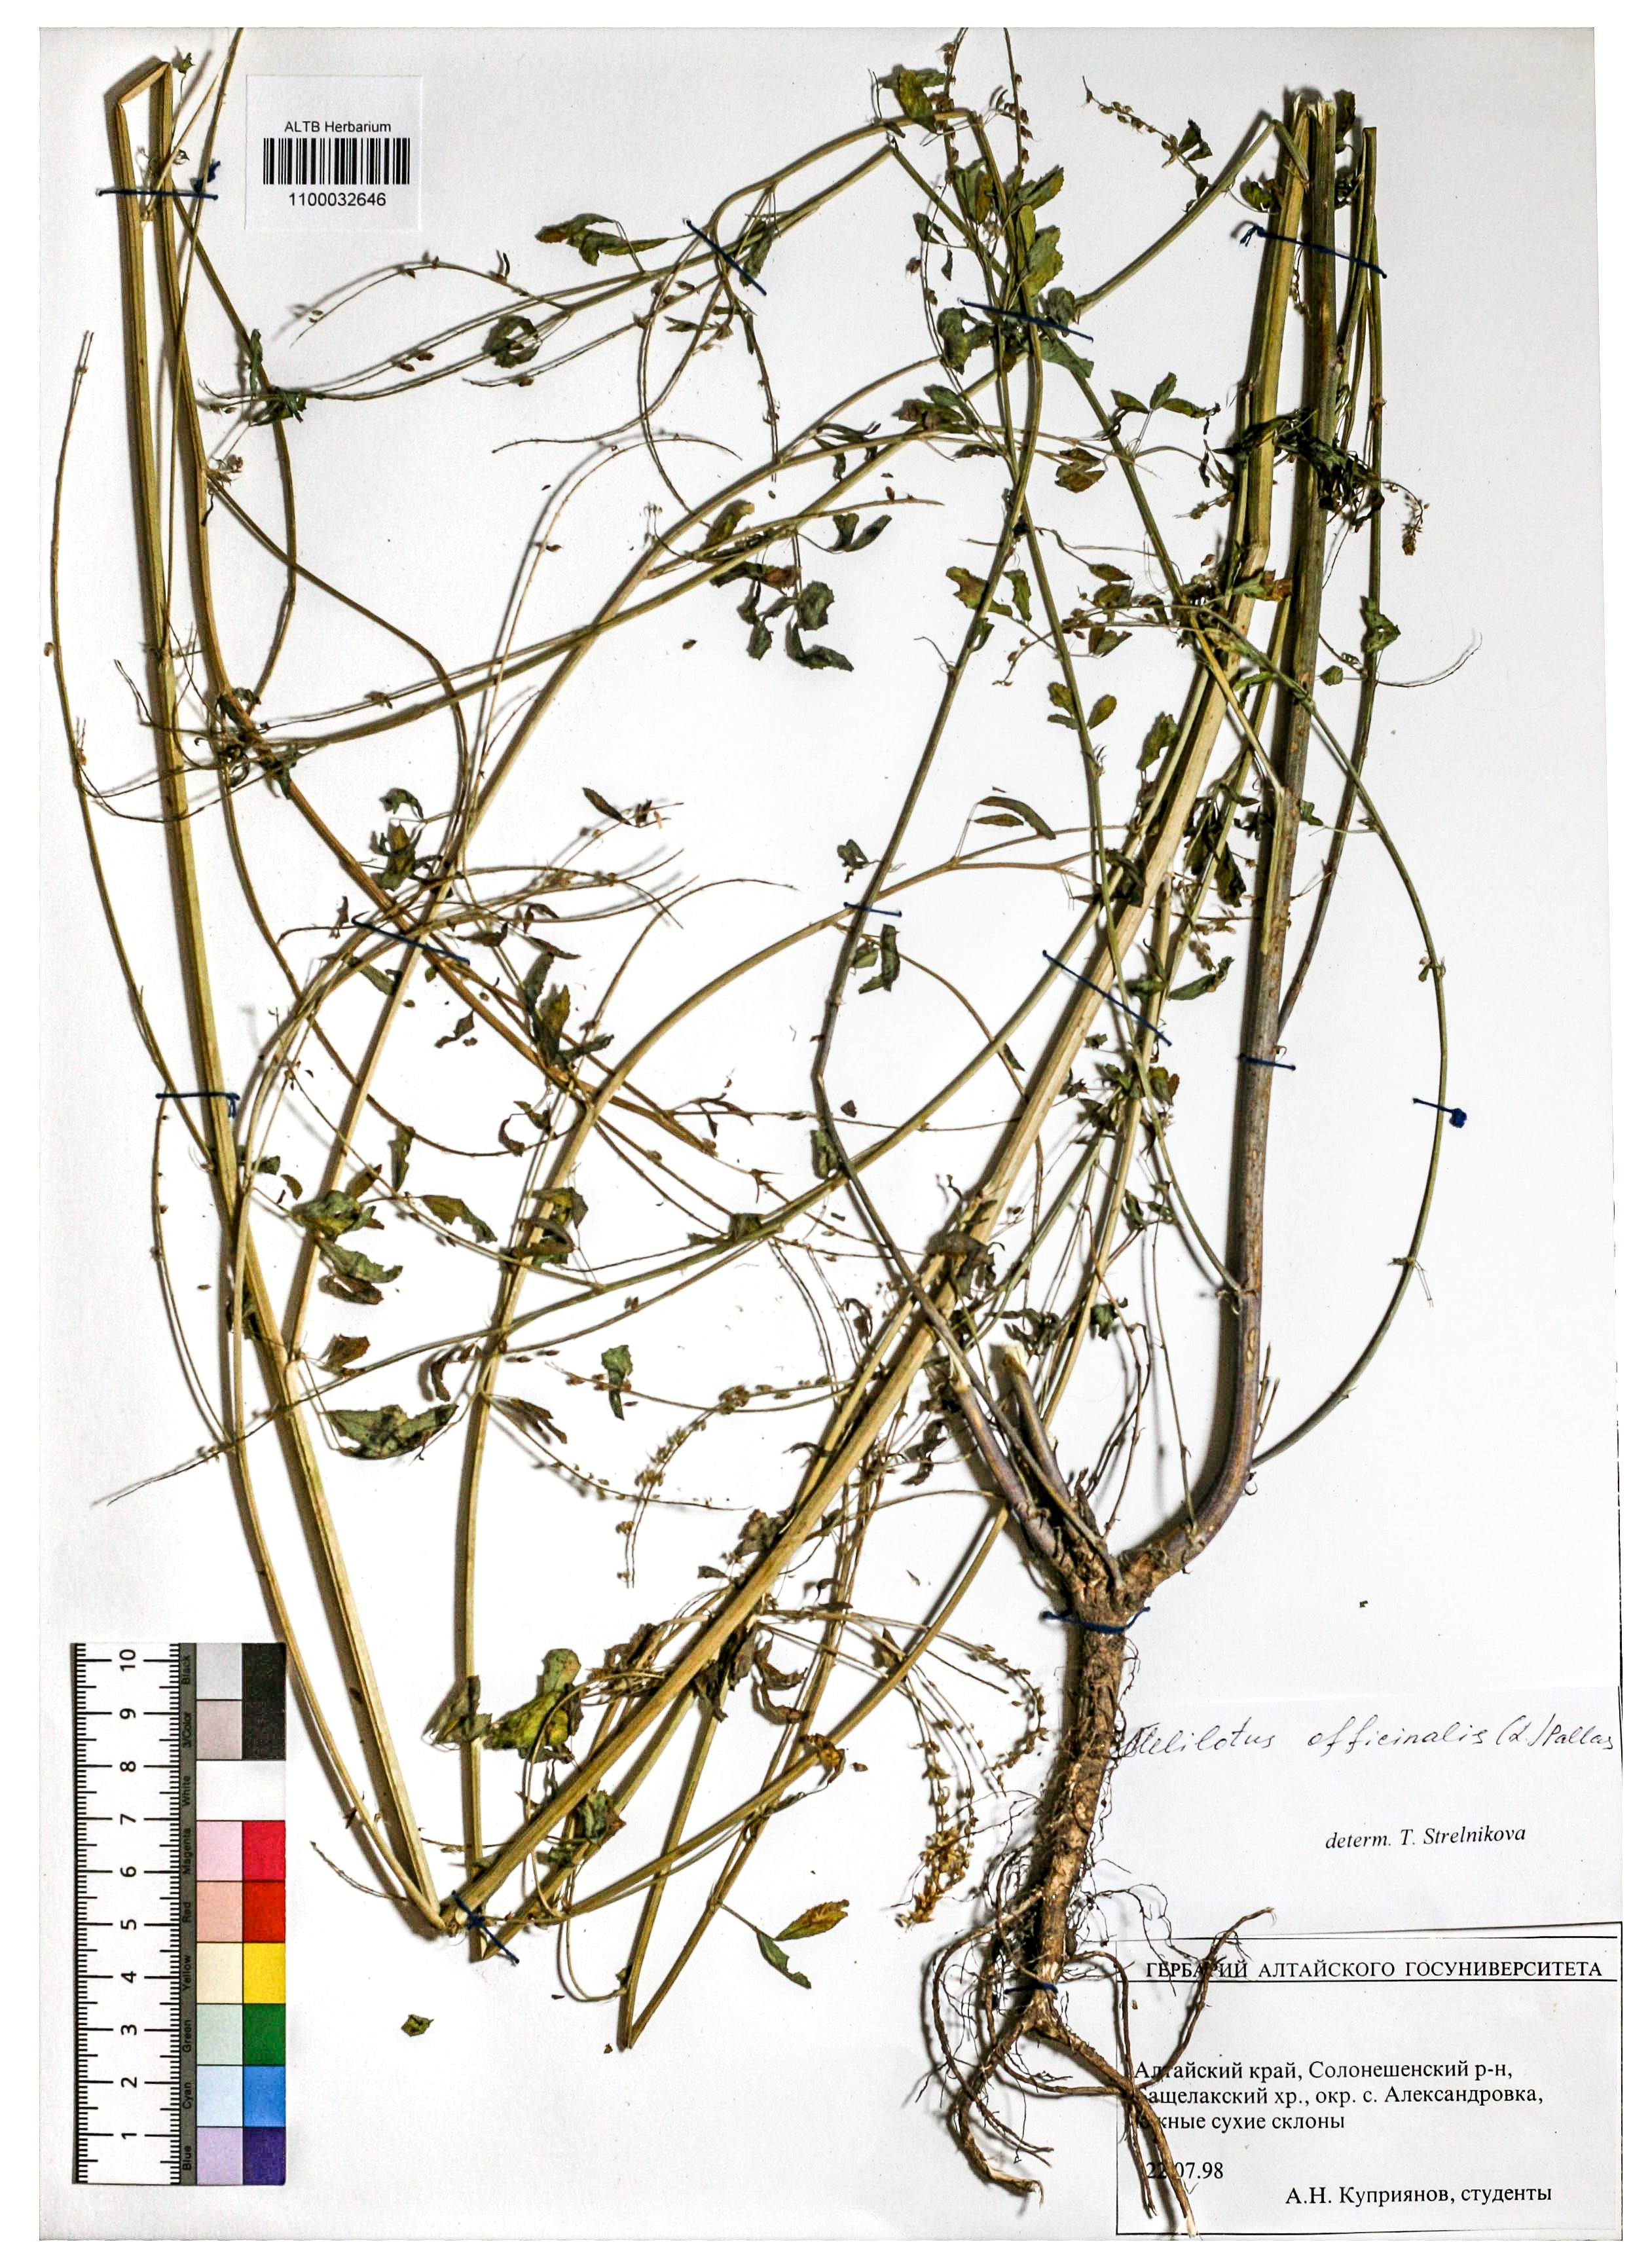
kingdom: Plantae
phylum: Tracheophyta
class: Magnoliopsida
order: Fabales
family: Fabaceae
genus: Melilotus
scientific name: Melilotus officinalis
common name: Sweetclover
